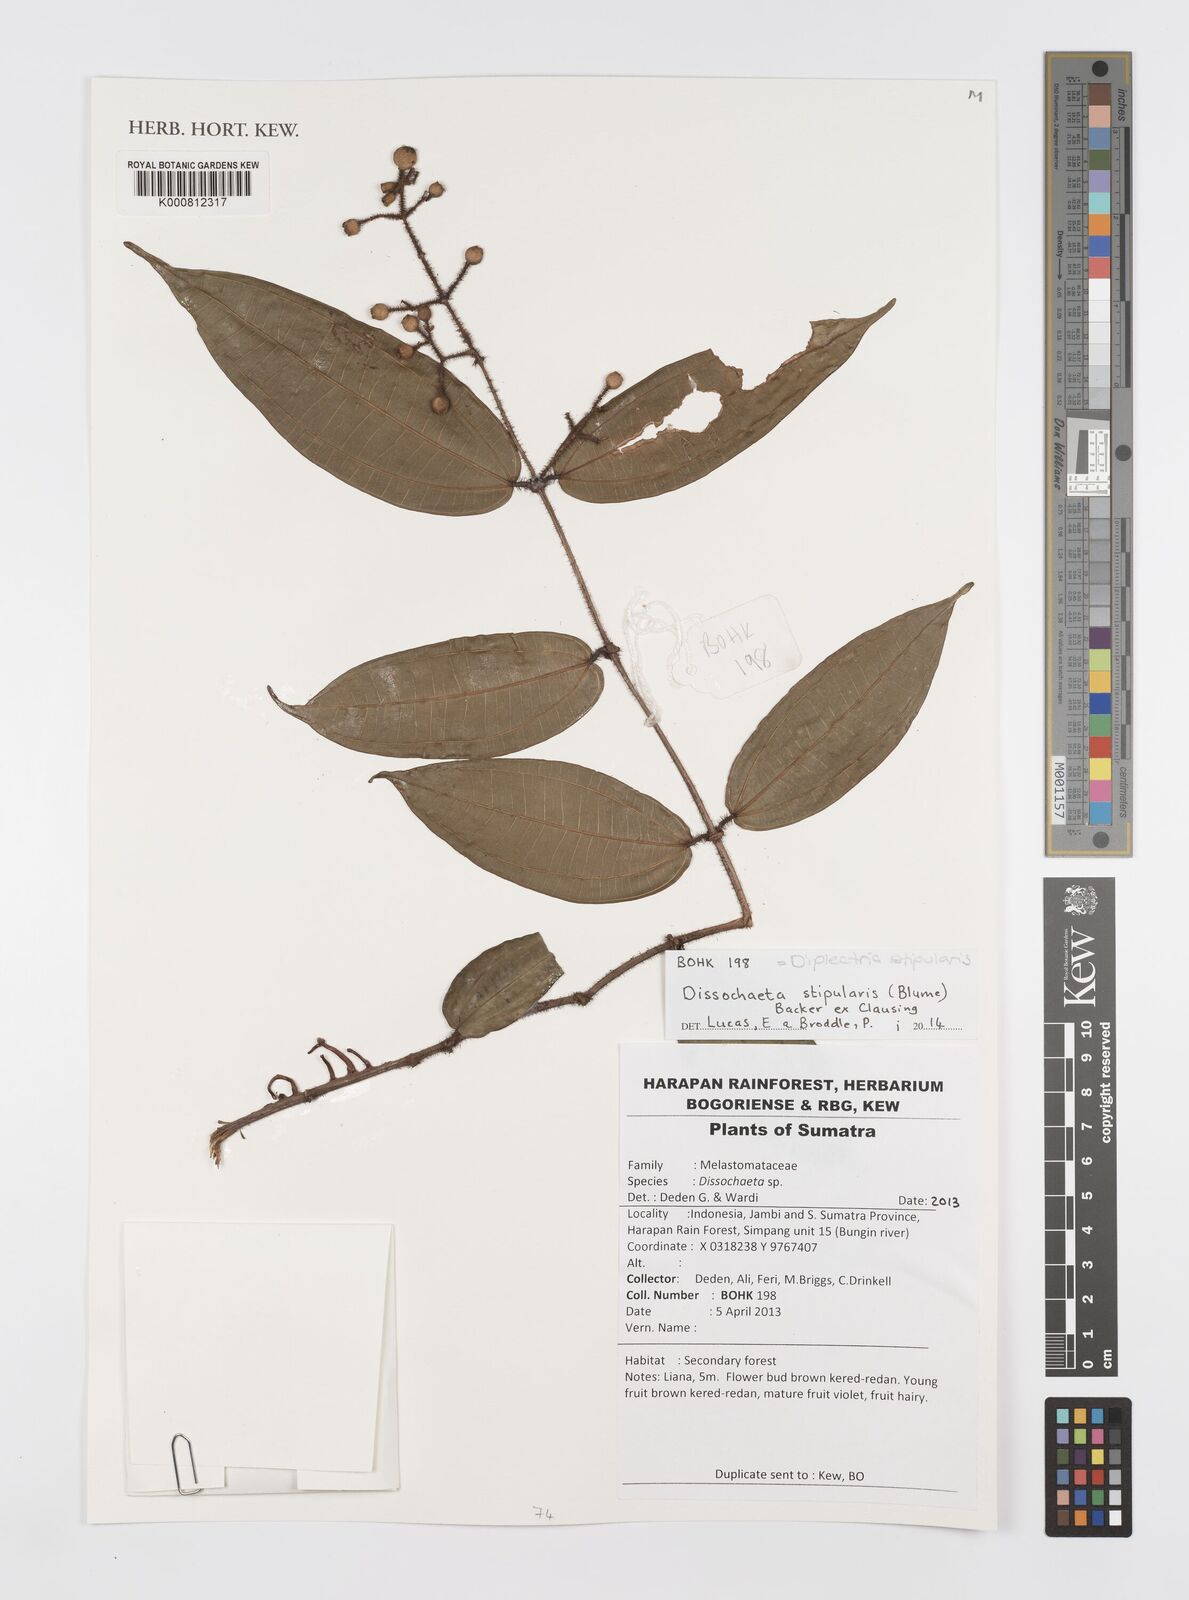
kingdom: Plantae
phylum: Tracheophyta
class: Magnoliopsida
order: Myrtales
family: Melastomataceae
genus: Diplectria
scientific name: Diplectria stipularis
